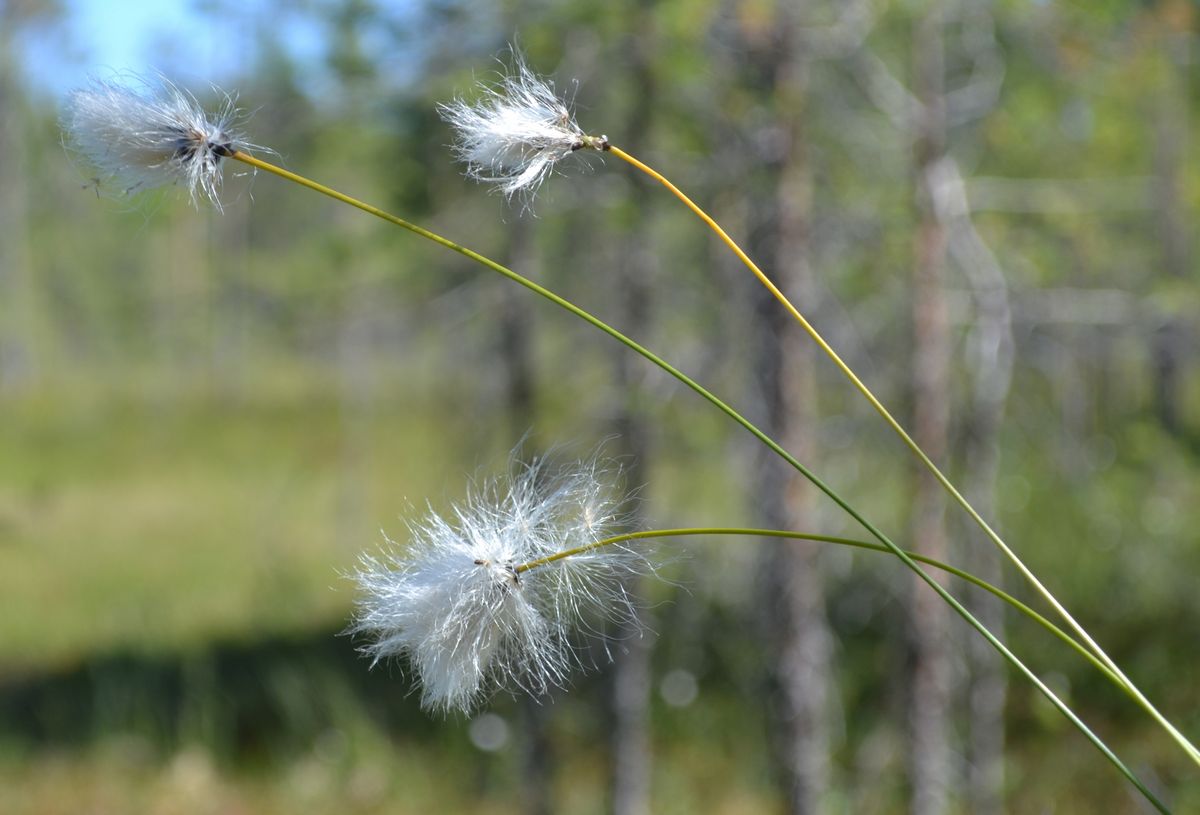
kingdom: Plantae
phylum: Tracheophyta
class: Liliopsida
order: Poales
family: Cyperaceae
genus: Trichophorum
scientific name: Trichophorum alpinum
